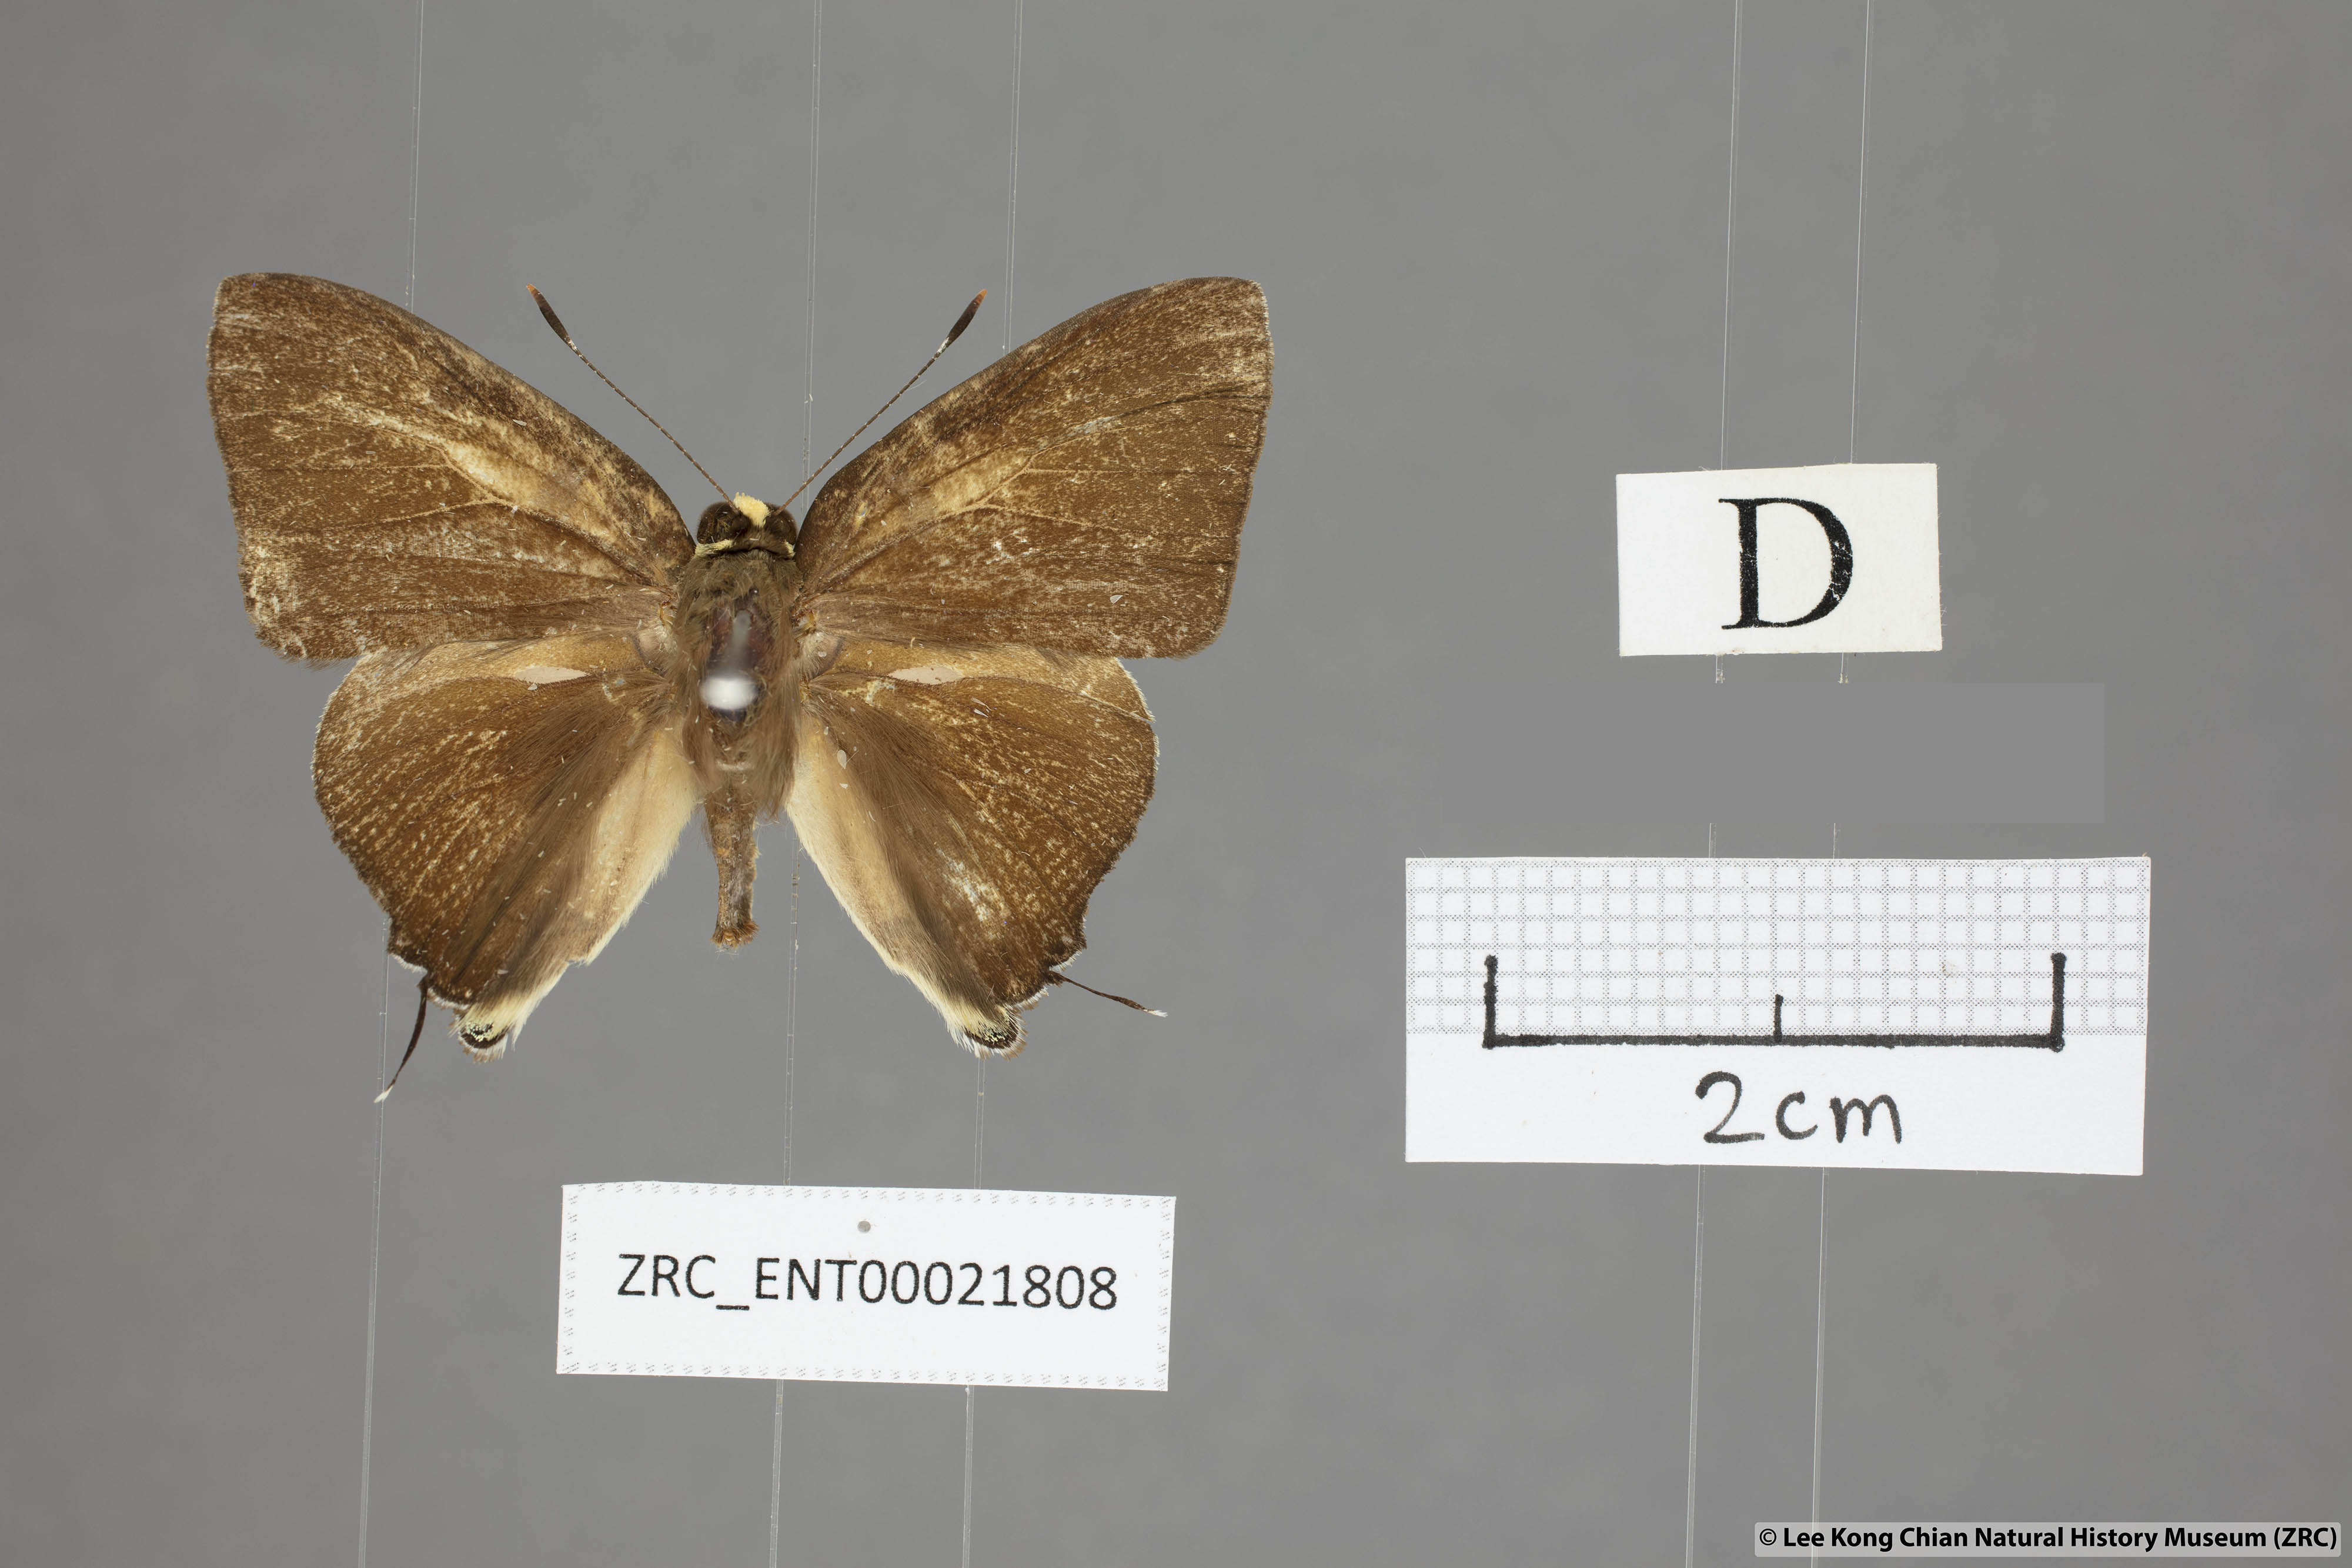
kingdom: Animalia
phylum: Arthropoda
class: Insecta
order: Lepidoptera
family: Lycaenidae
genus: Rapala
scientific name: Rapala domitia
